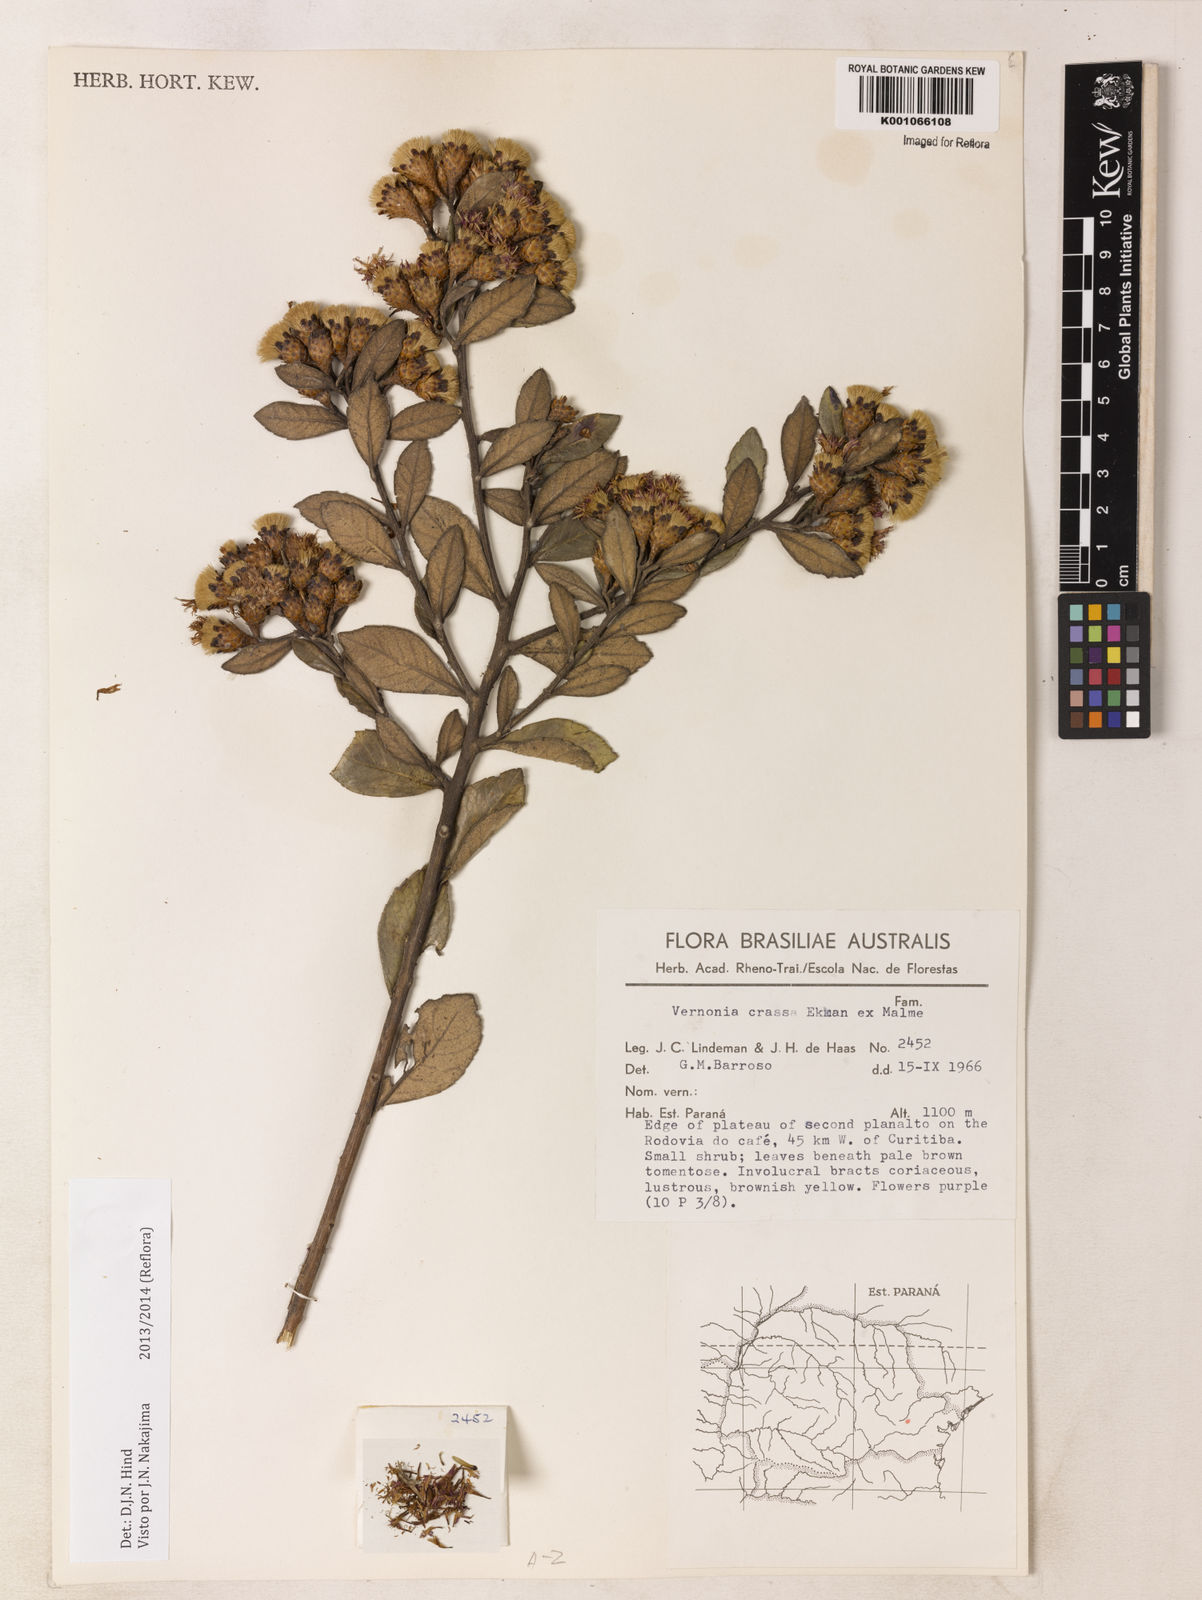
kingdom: Plantae
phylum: Tracheophyta
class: Magnoliopsida
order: Asterales
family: Asteraceae
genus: Vernonanthura
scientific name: Vernonanthura crassa
